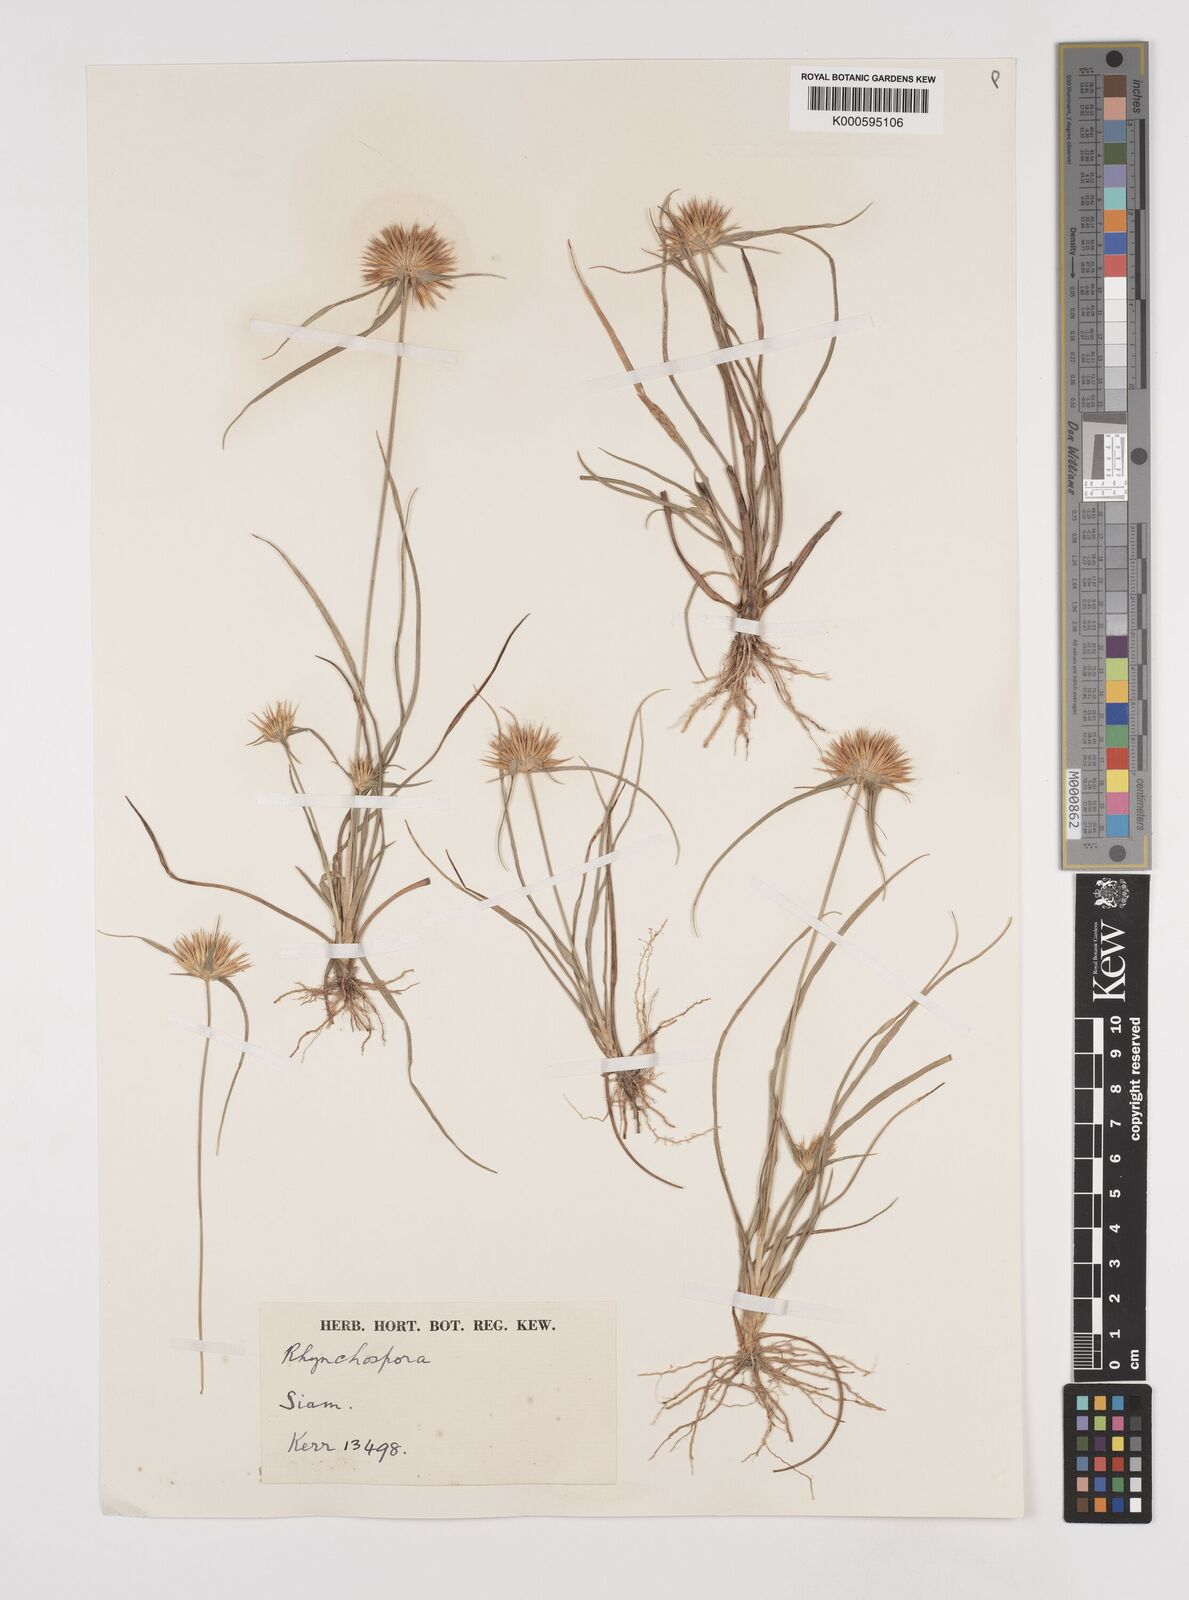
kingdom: Plantae
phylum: Tracheophyta
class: Liliopsida
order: Poales
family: Cyperaceae
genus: Rhynchospora
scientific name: Rhynchospora longisetis
